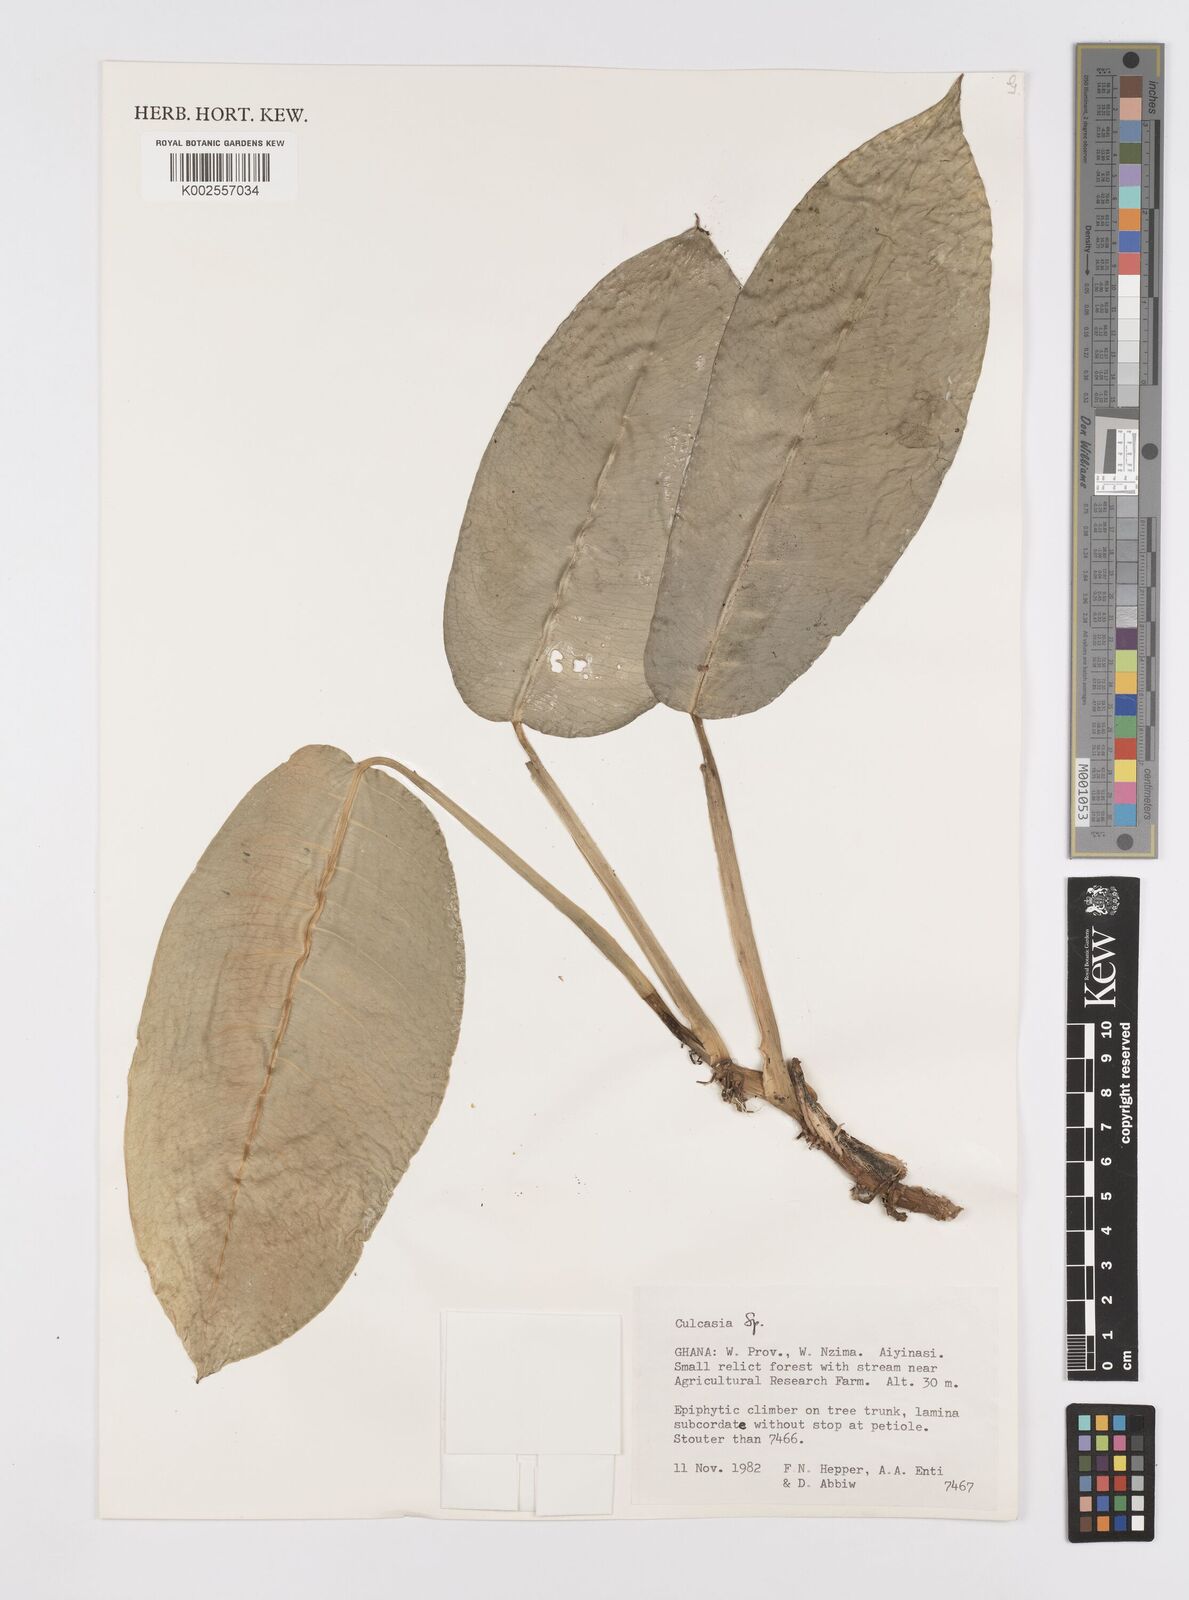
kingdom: Plantae
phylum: Tracheophyta
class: Liliopsida
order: Alismatales
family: Araceae
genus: Culcasia
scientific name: Culcasia
